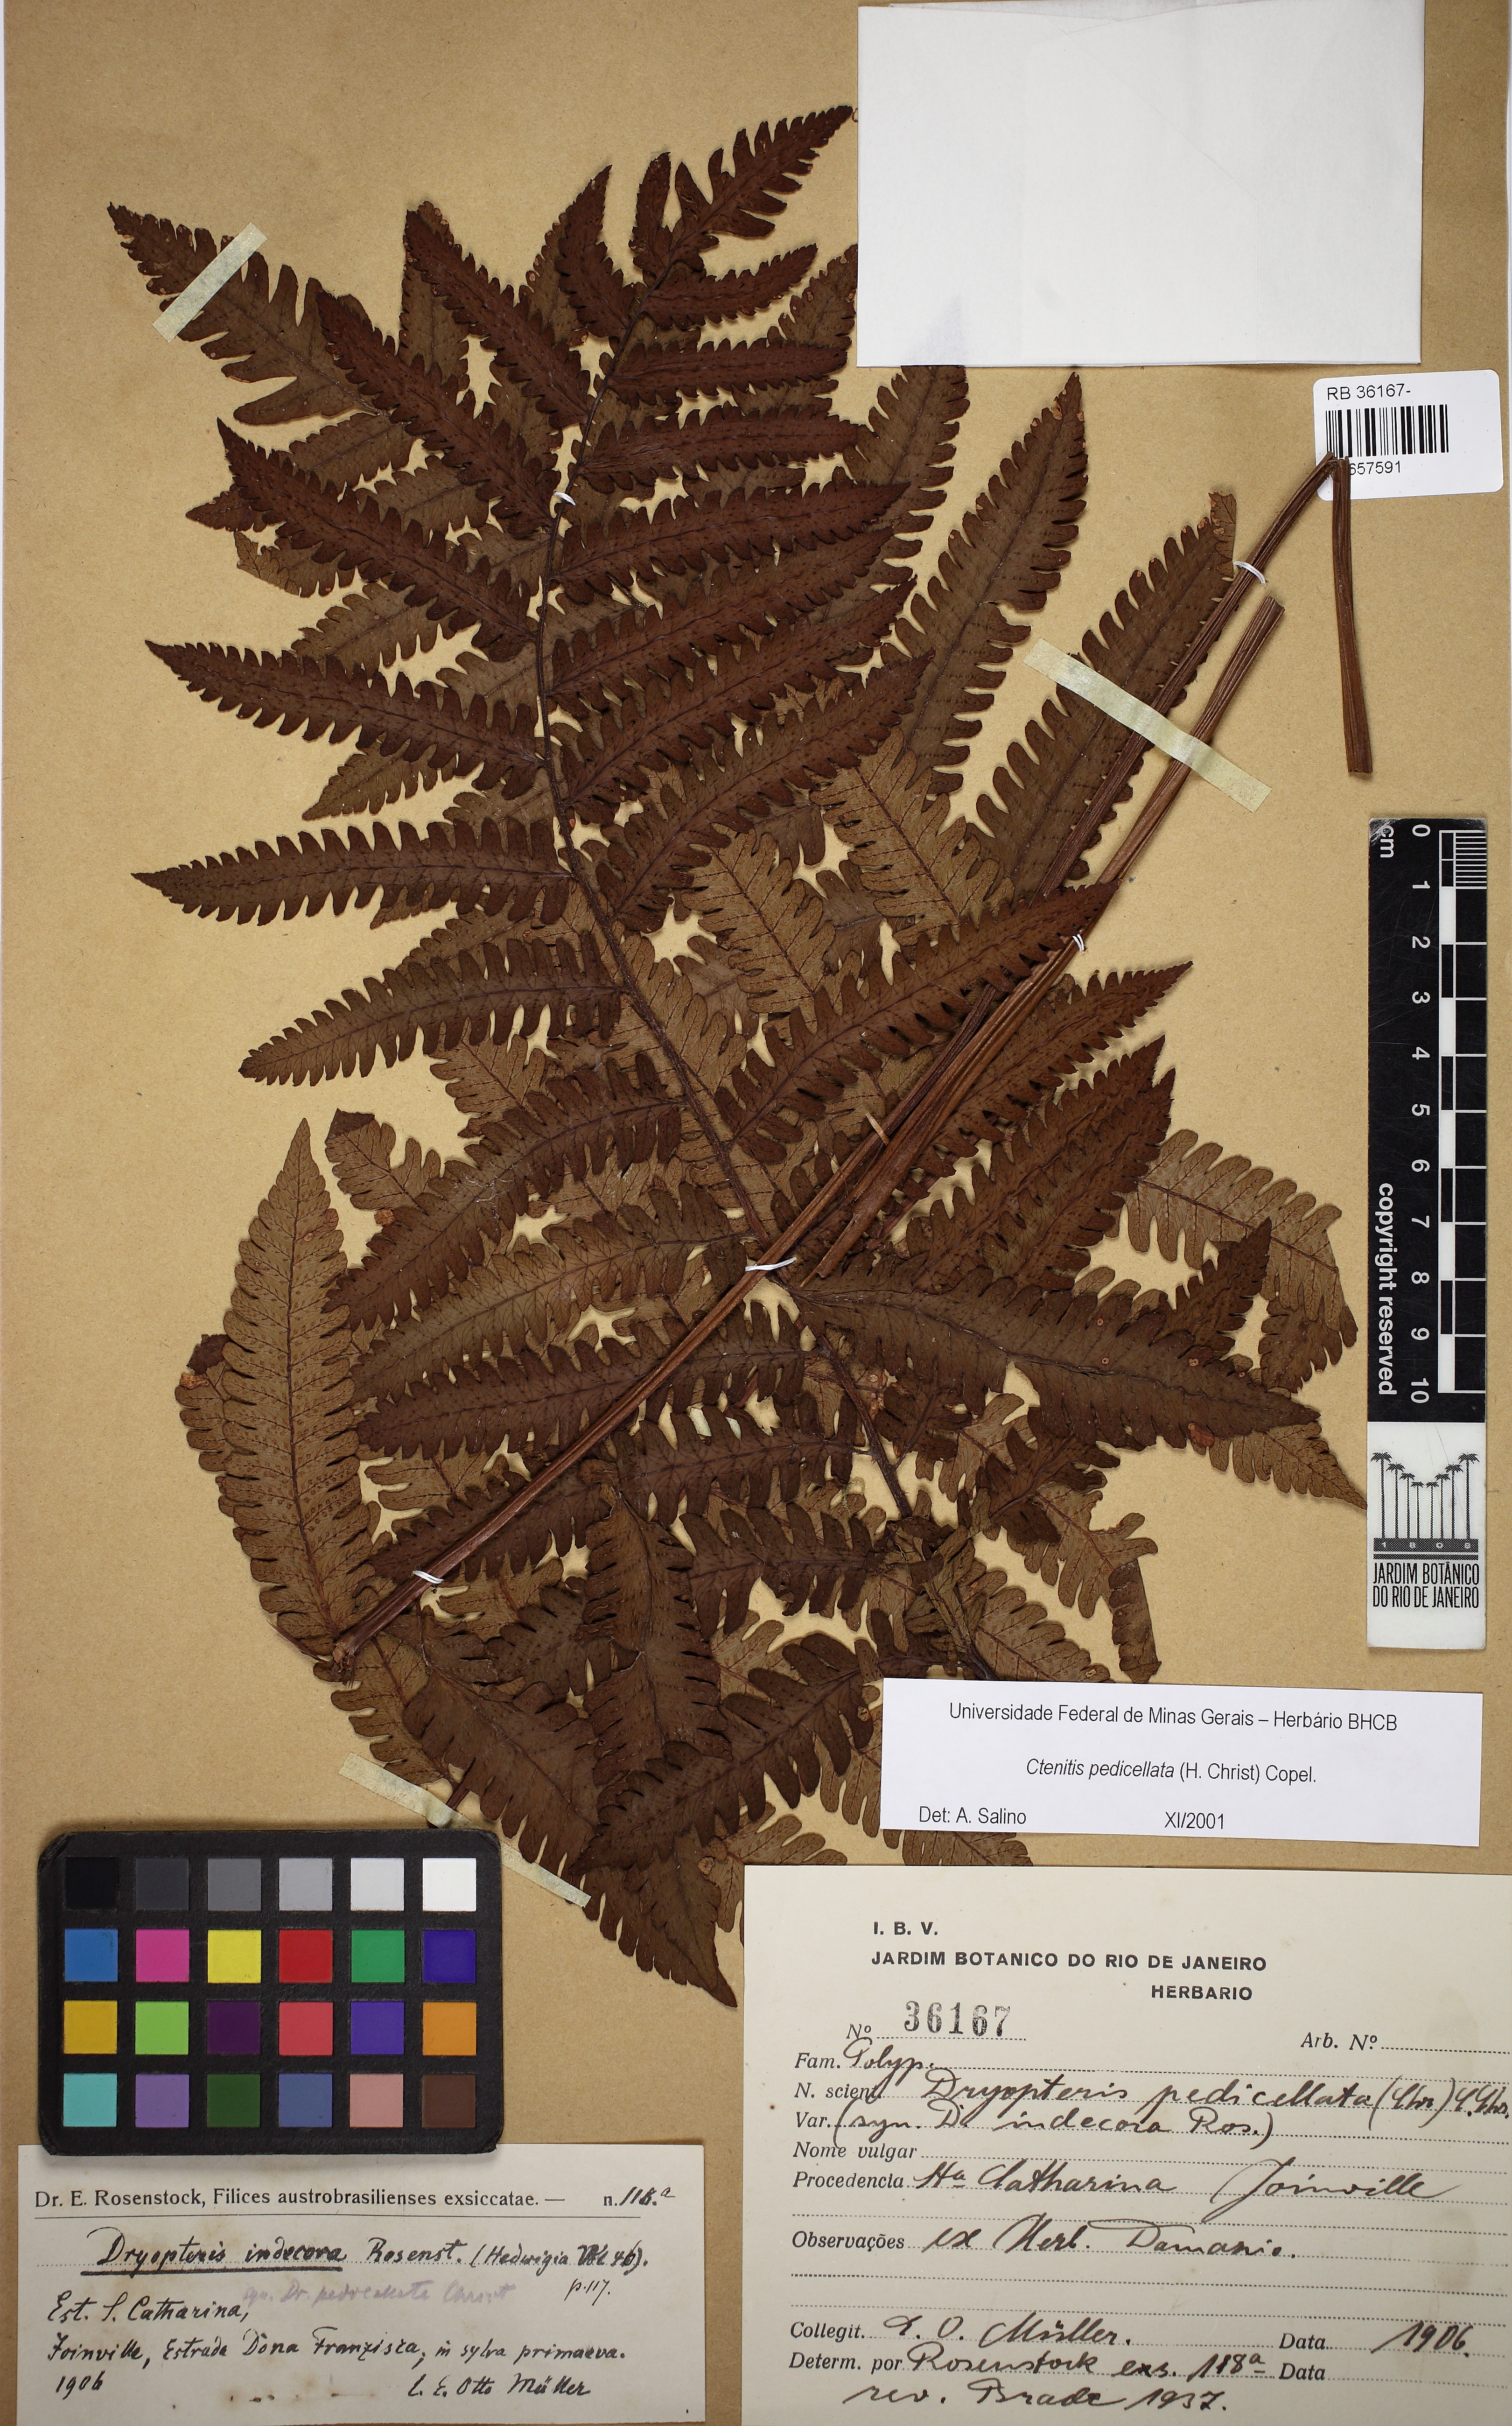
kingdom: Plantae
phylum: Tracheophyta
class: Polypodiopsida
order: Polypodiales
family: Dryopteridaceae
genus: Ctenitis
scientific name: Ctenitis nervata
